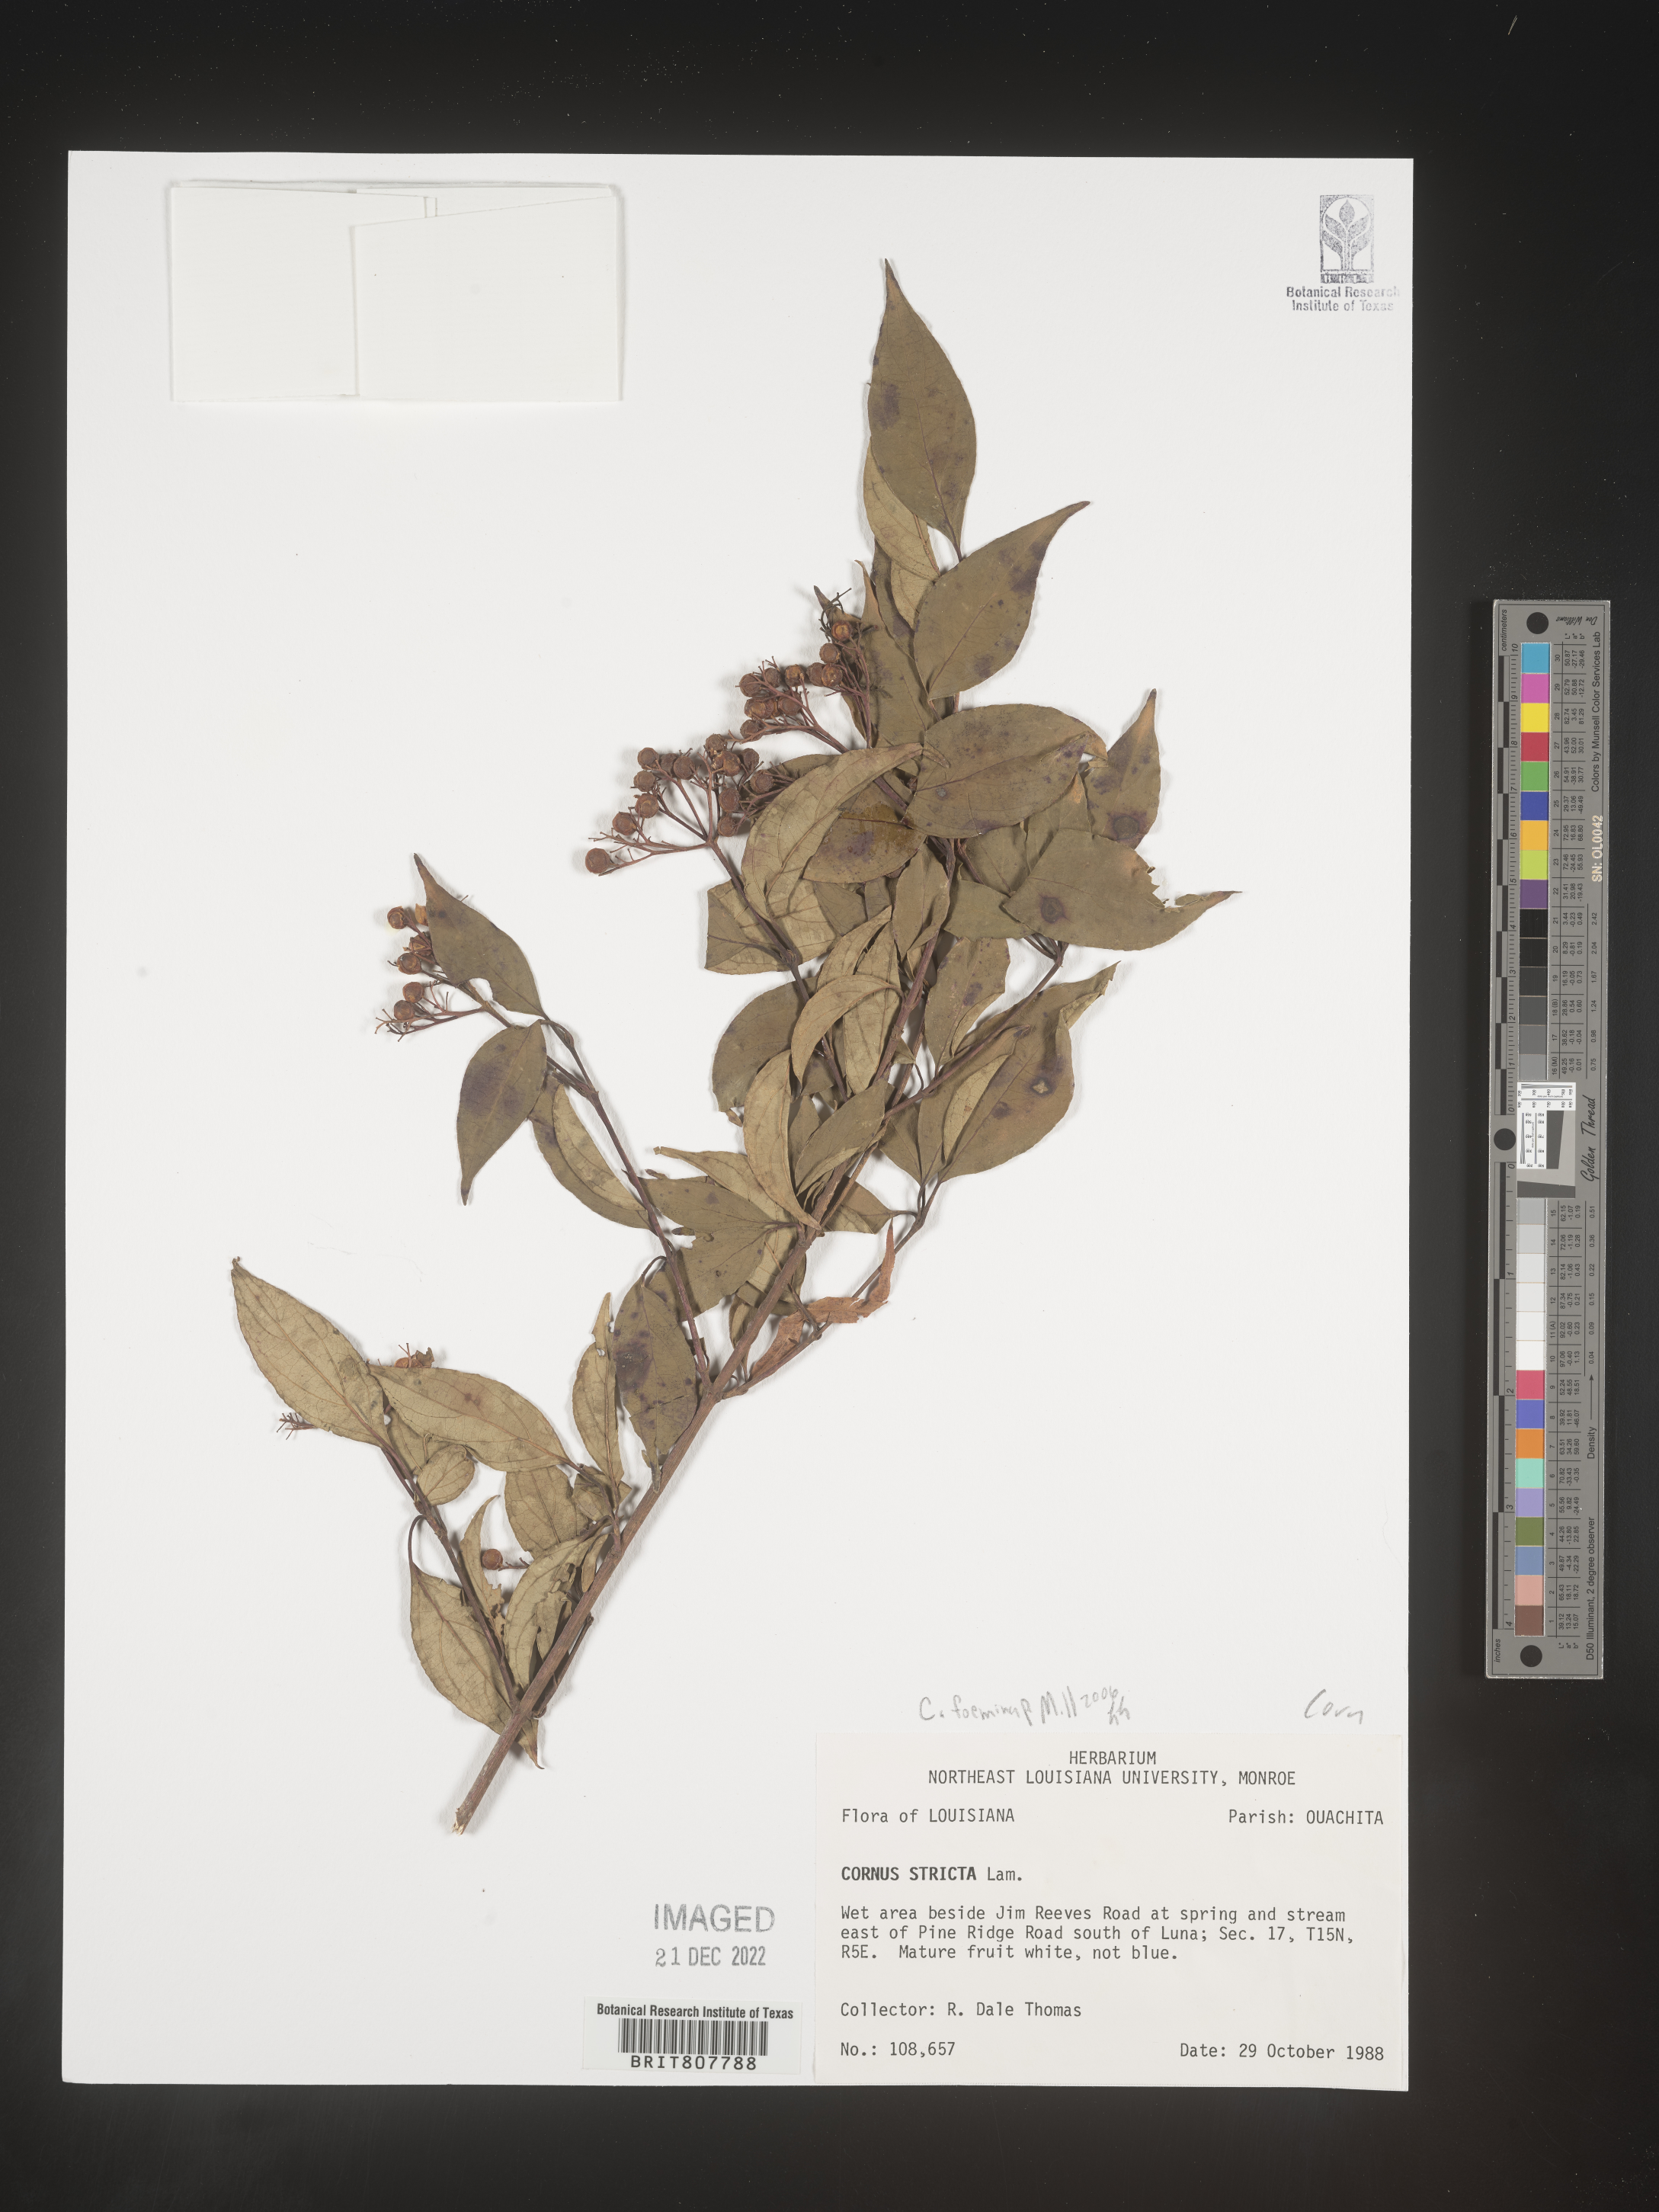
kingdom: Plantae
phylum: Tracheophyta
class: Magnoliopsida
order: Cornales
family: Cornaceae
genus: Cornus
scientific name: Cornus foemina
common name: Swamp dogwood
